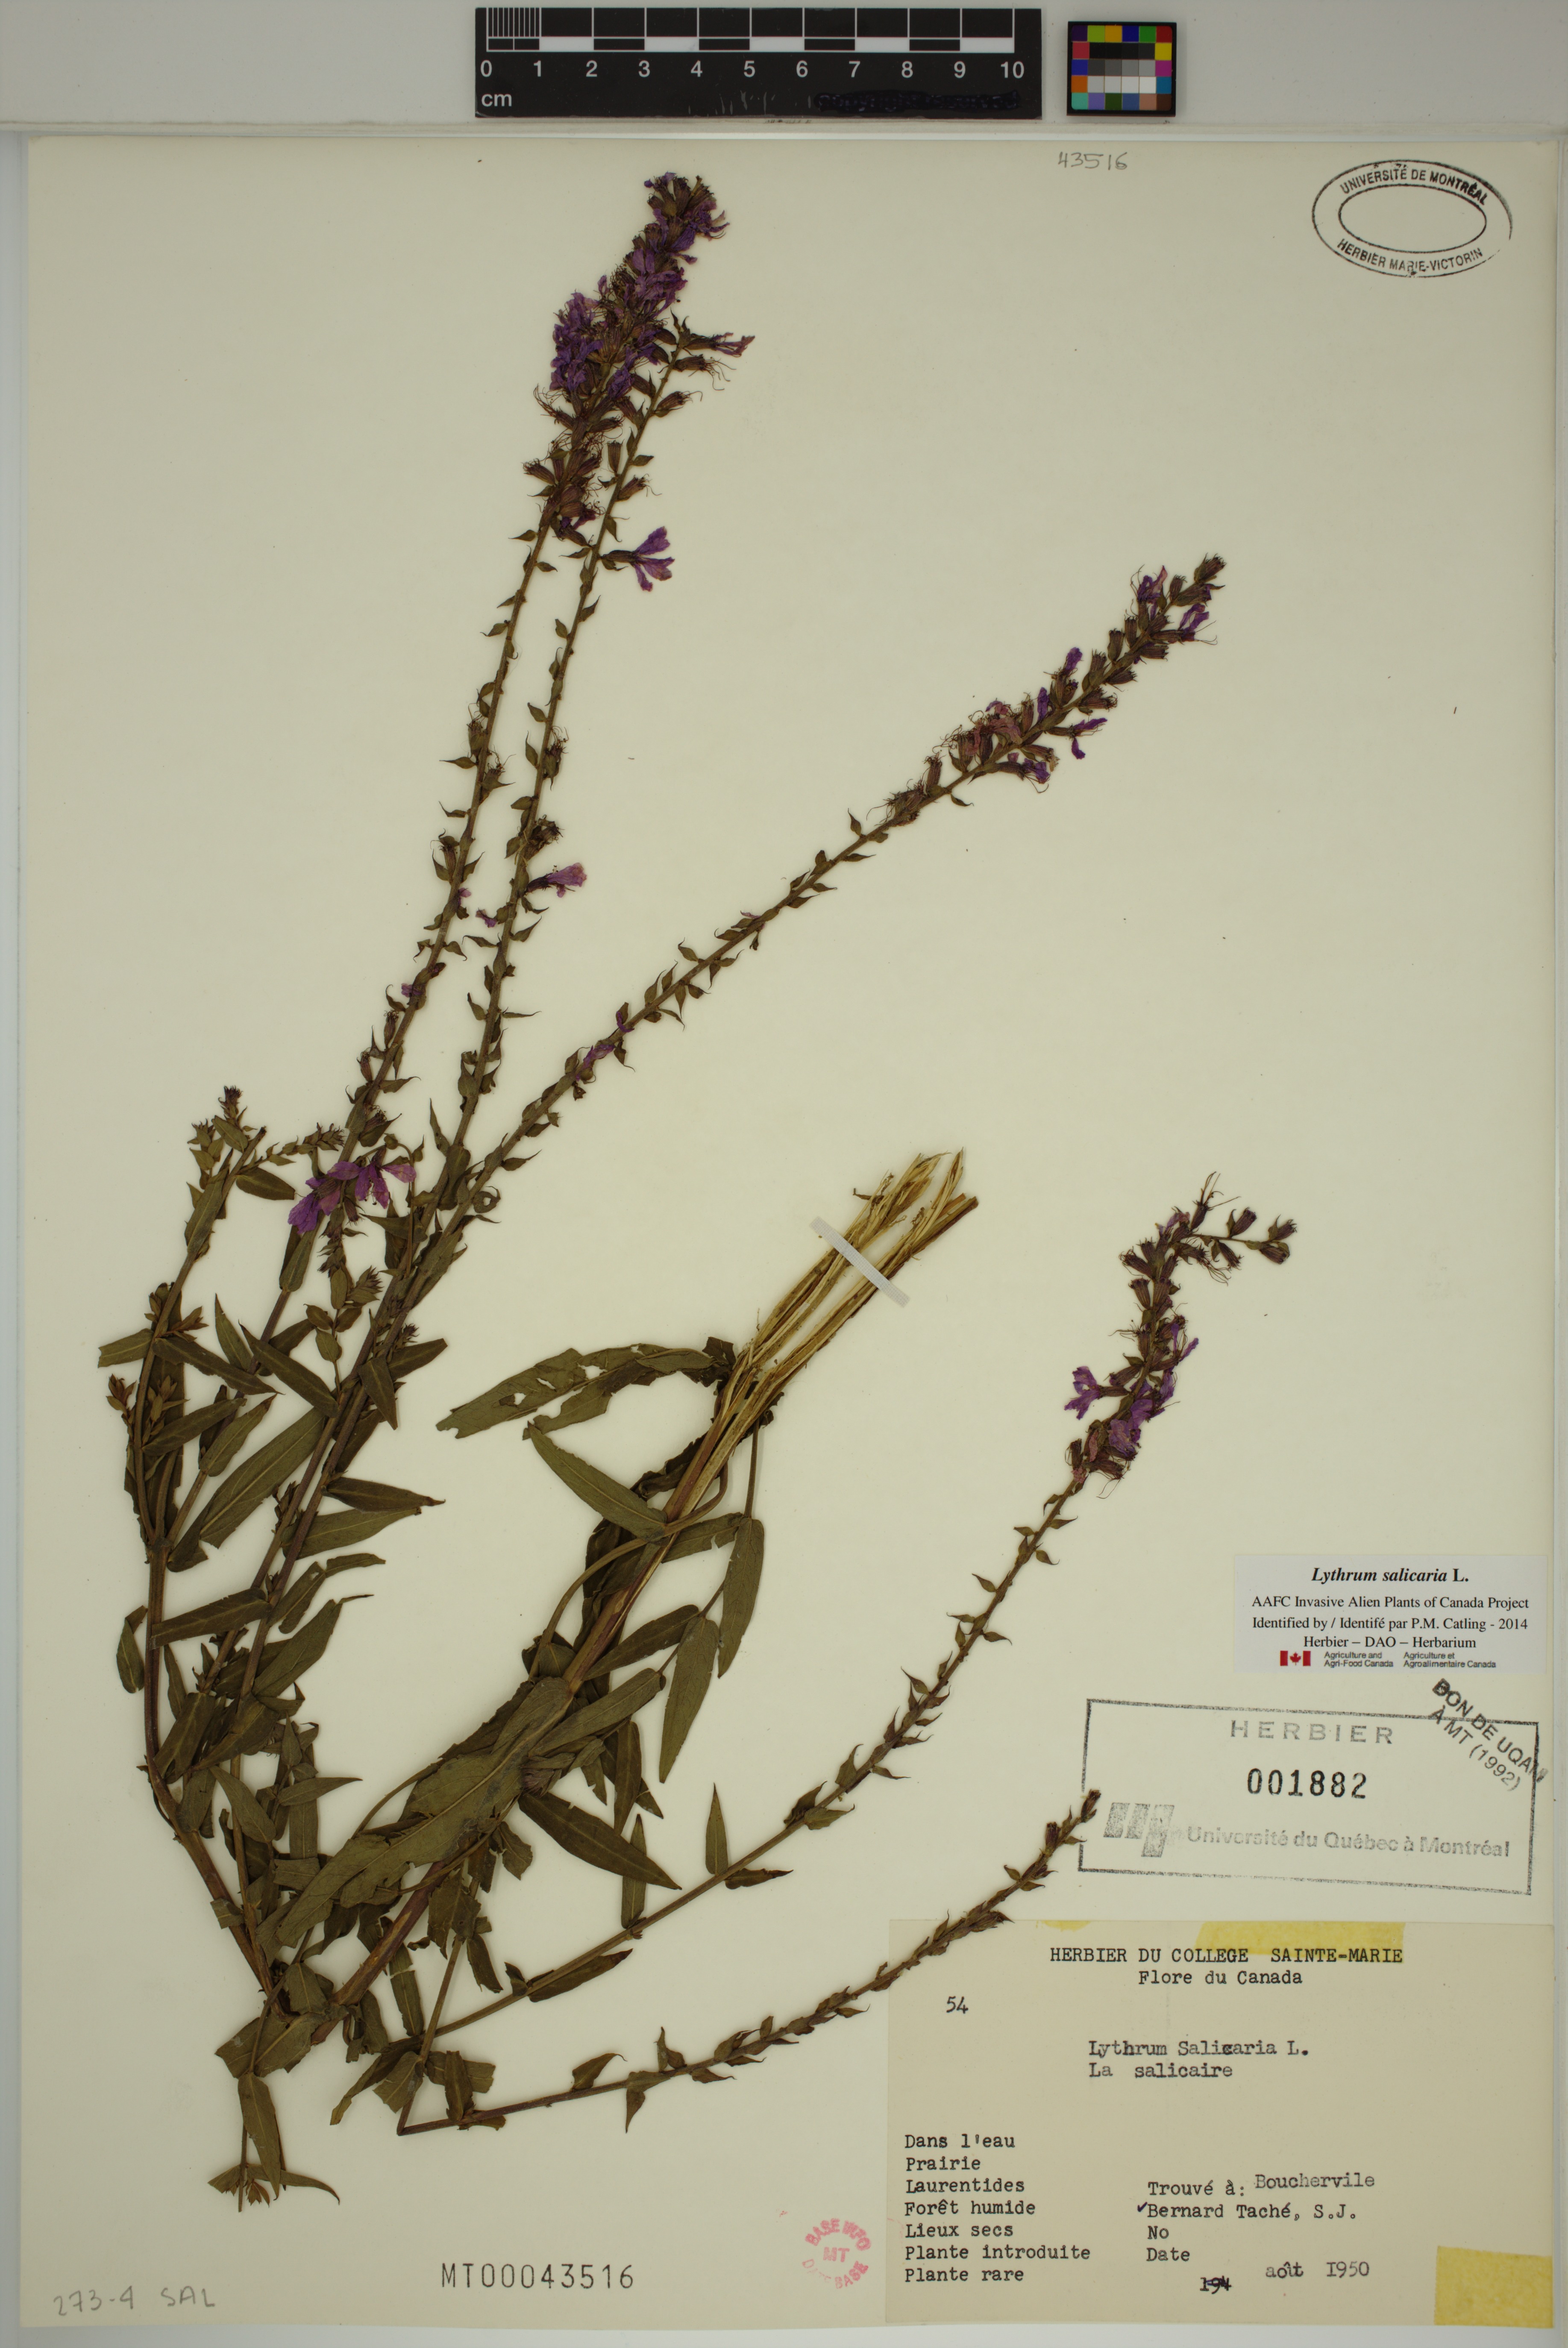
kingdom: Plantae
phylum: Tracheophyta
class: Magnoliopsida
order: Myrtales
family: Lythraceae
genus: Lythrum
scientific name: Lythrum salicaria
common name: Purple loosestrife
